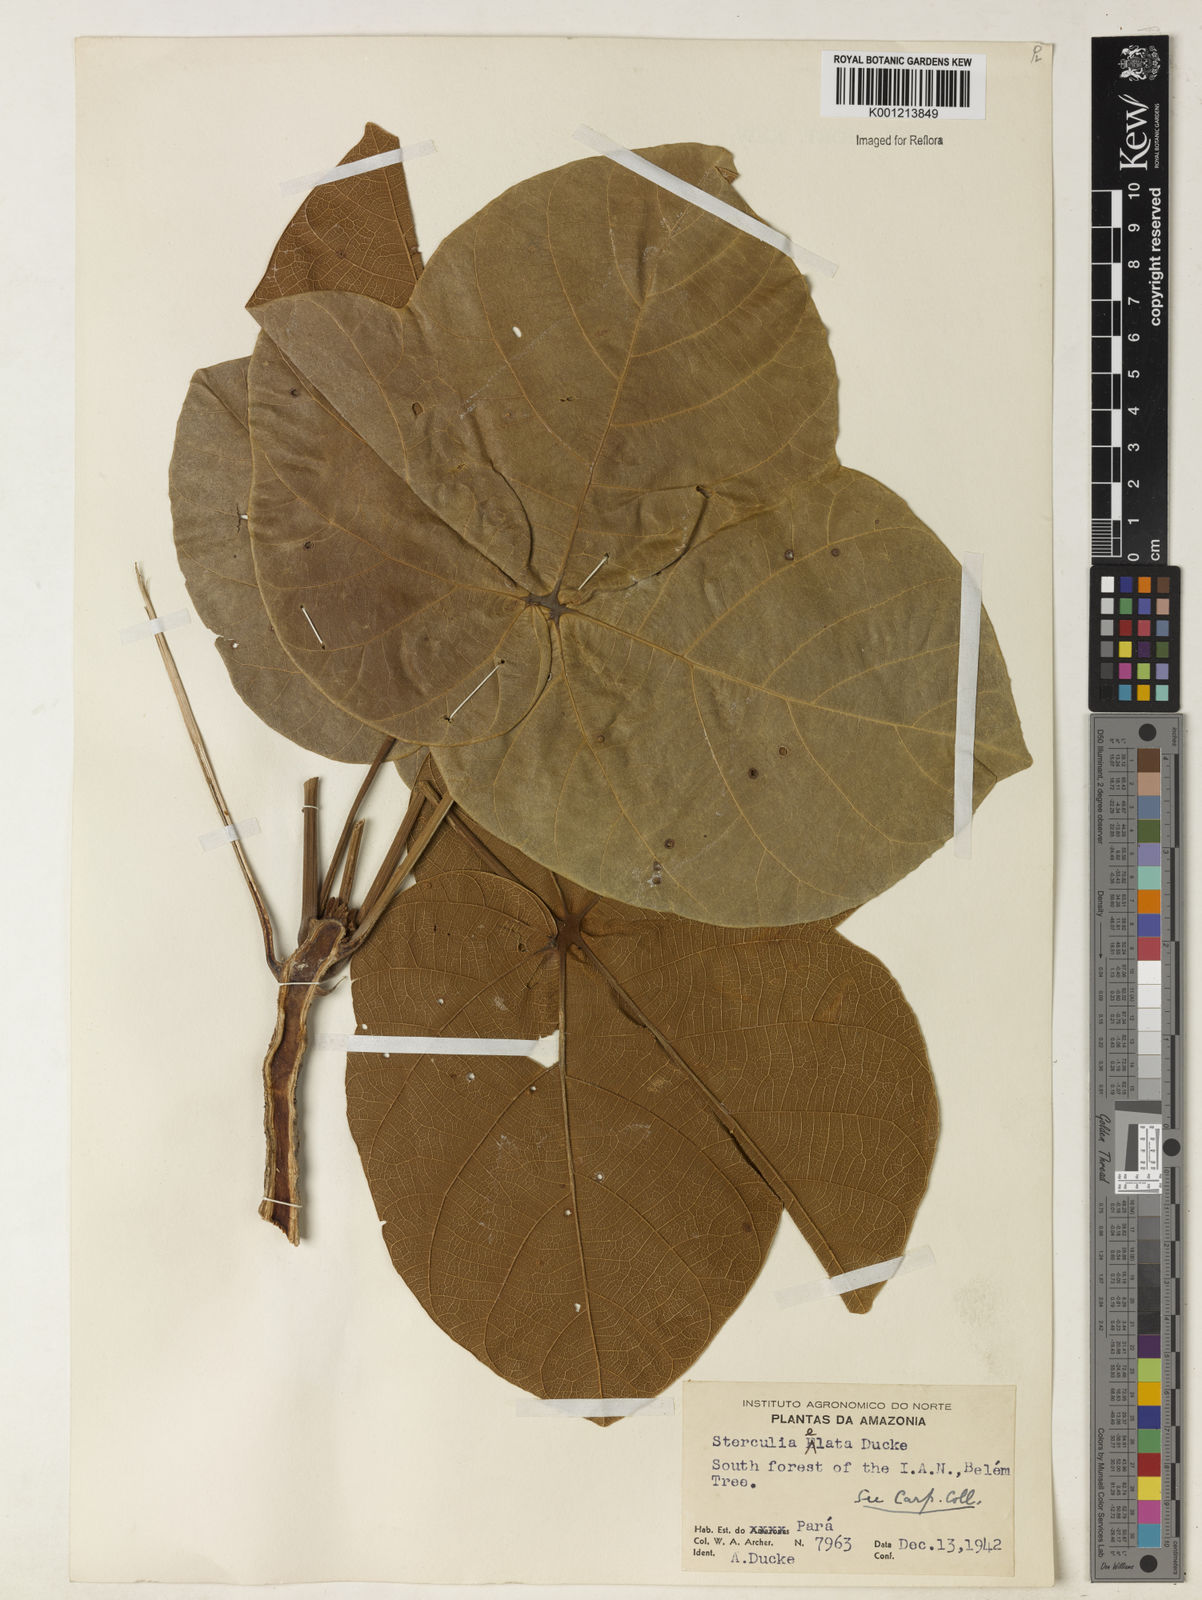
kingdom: Plantae
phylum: Tracheophyta
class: Magnoliopsida
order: Malvales
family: Malvaceae
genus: Sterculia
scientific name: Sterculia apetala
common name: Panama tree
